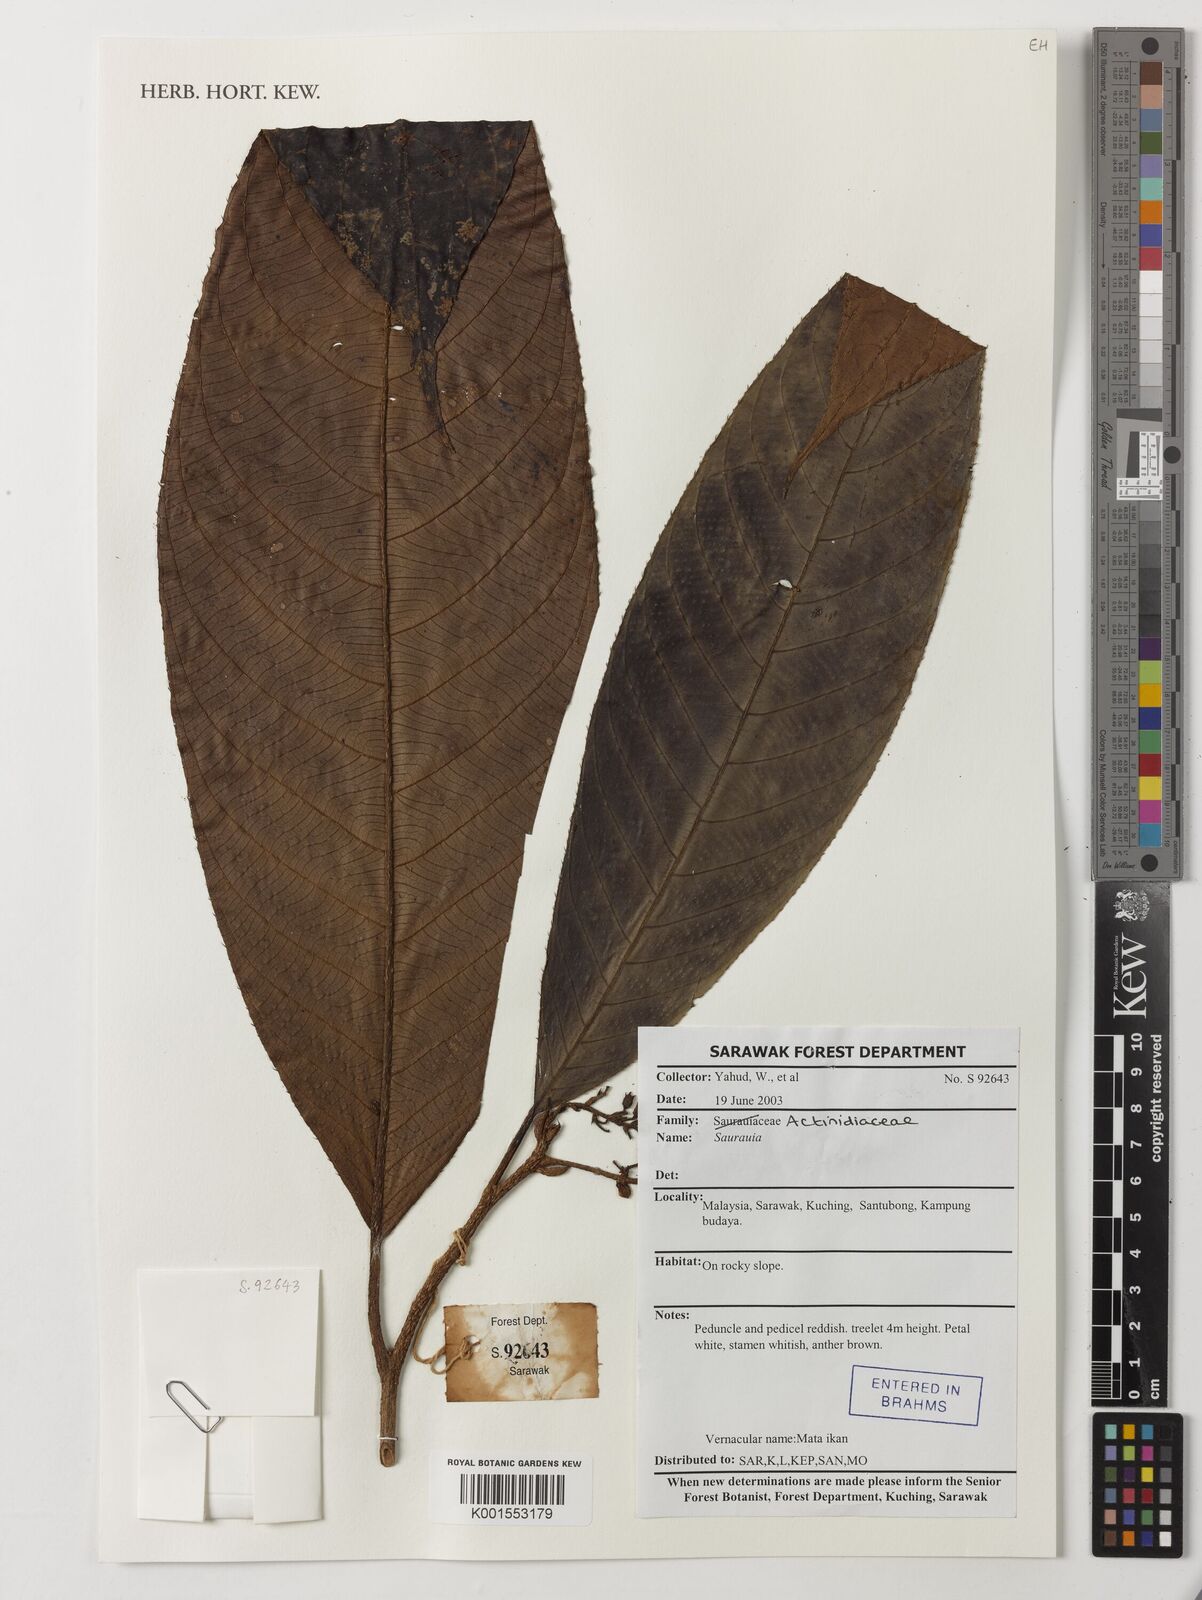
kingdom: Plantae
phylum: Tracheophyta
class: Magnoliopsida
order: Ericales
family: Actinidiaceae
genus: Saurauia
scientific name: Saurauia
